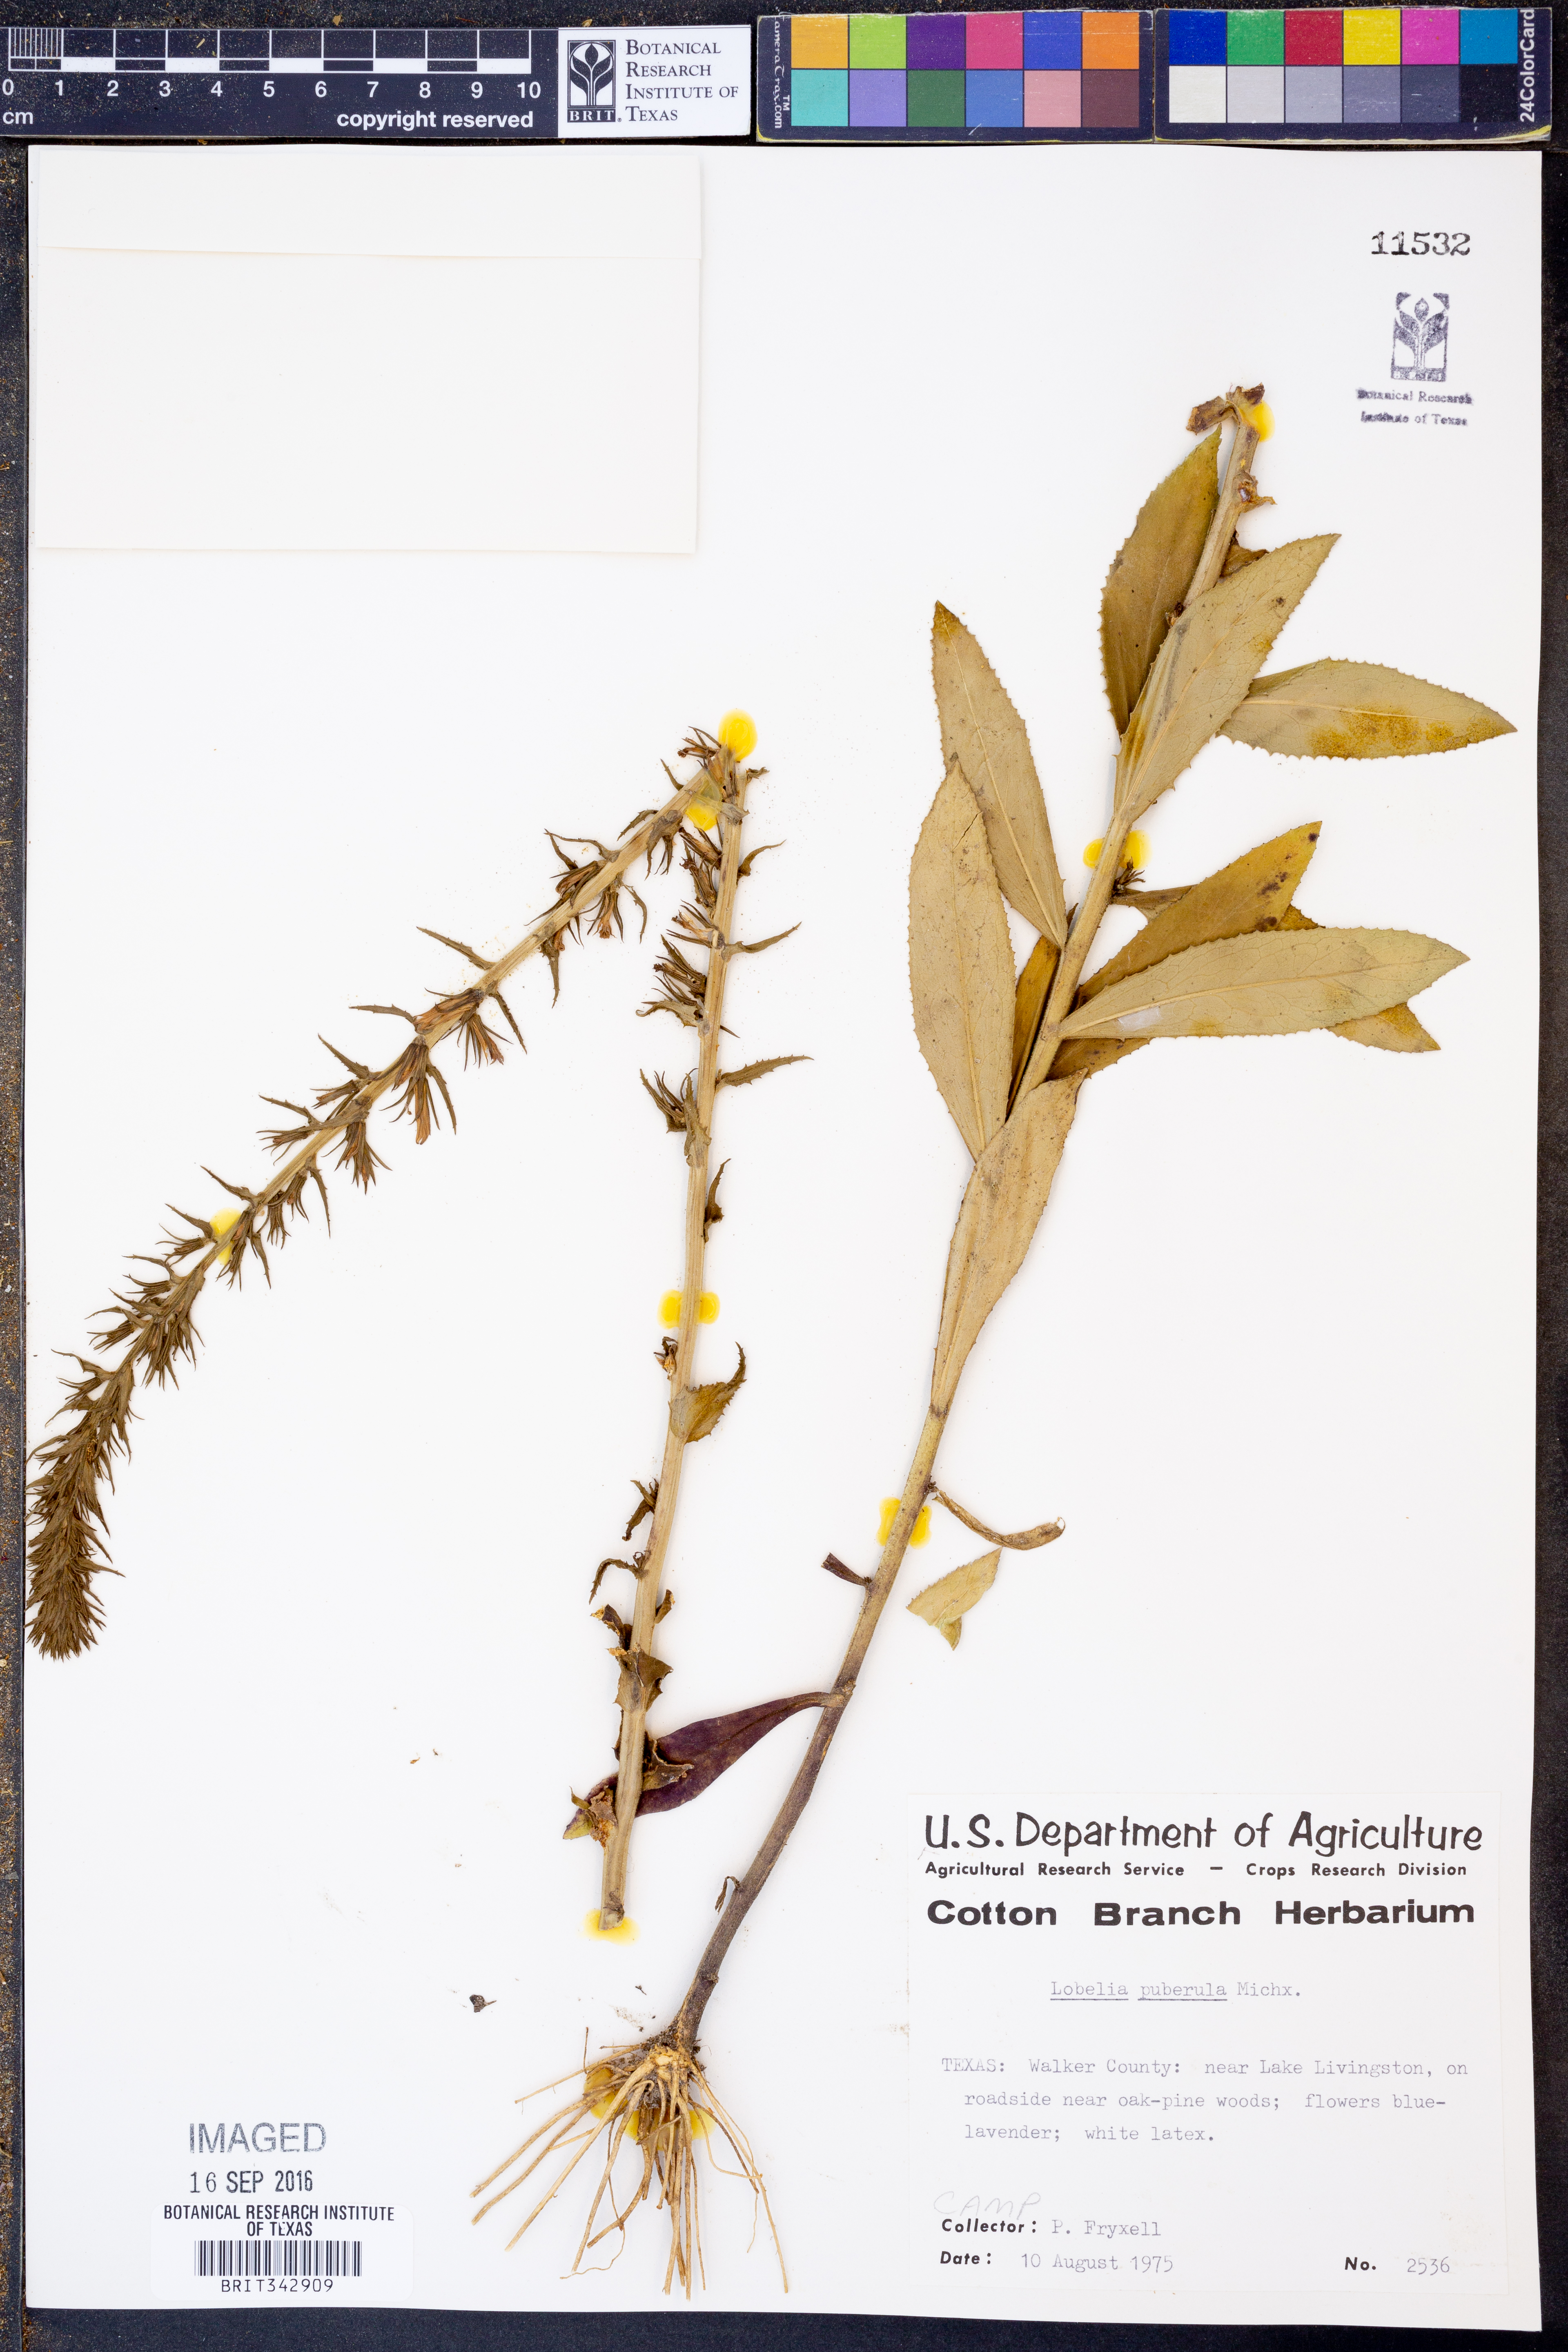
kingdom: Plantae
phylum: Tracheophyta
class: Magnoliopsida
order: Asterales
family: Campanulaceae
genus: Lobelia
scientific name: Lobelia puberula
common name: Purple dewdrop
